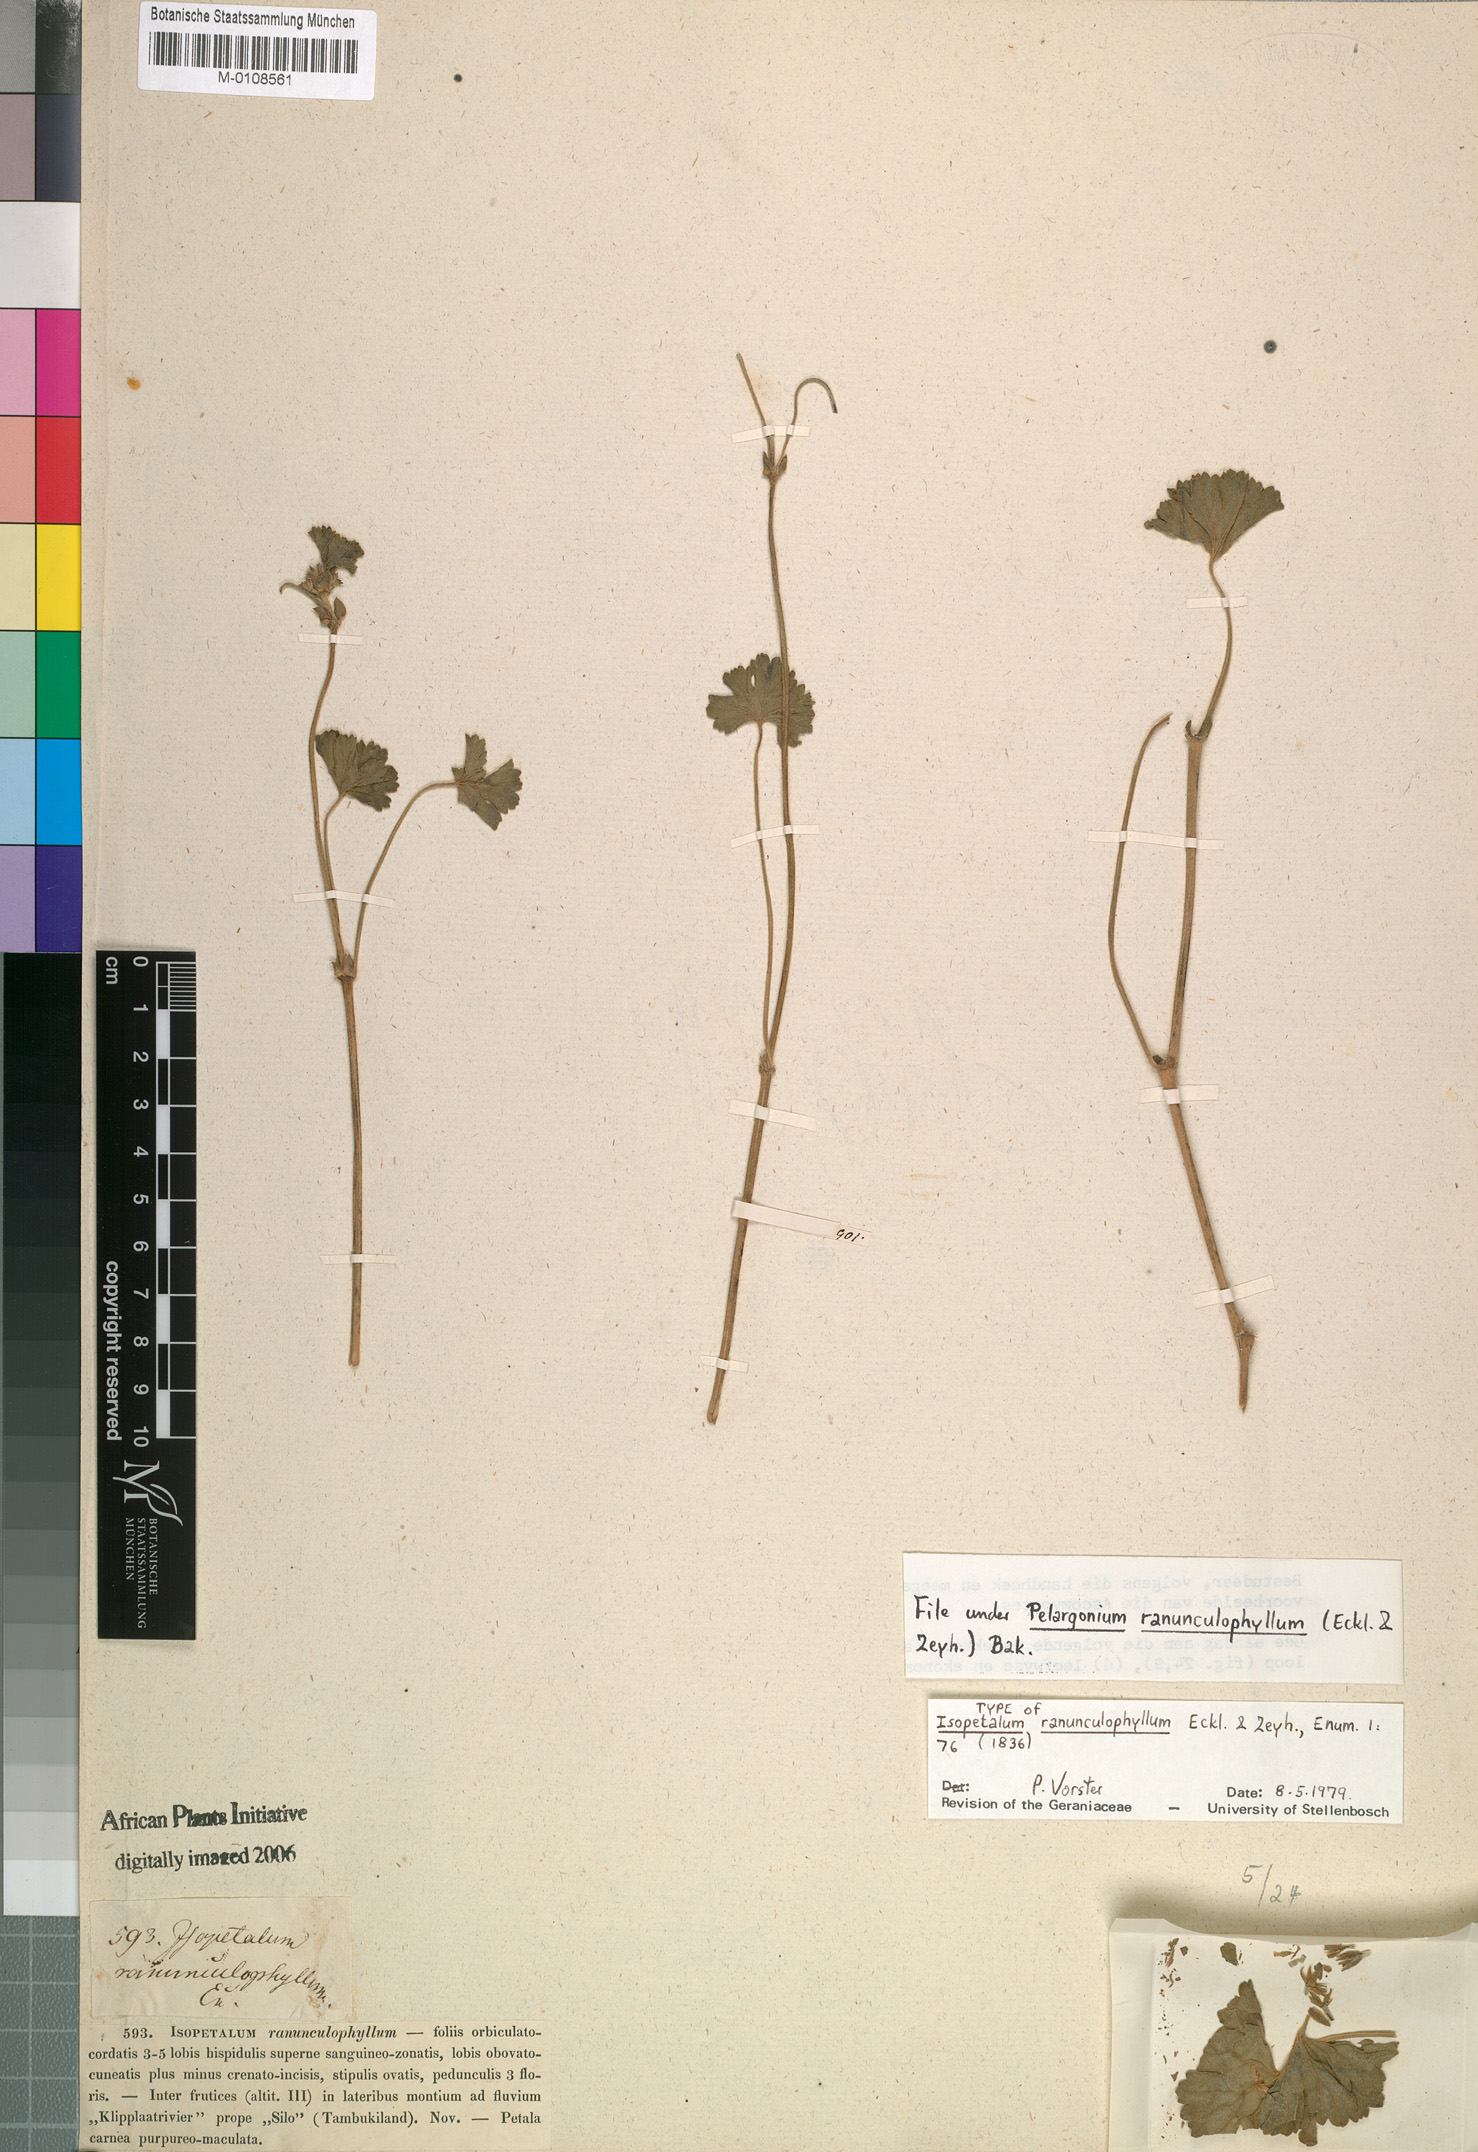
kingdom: Plantae
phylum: Tracheophyta
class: Magnoliopsida
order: Geraniales
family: Geraniaceae
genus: Pelargonium
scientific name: Pelargonium ranunculophyllum
